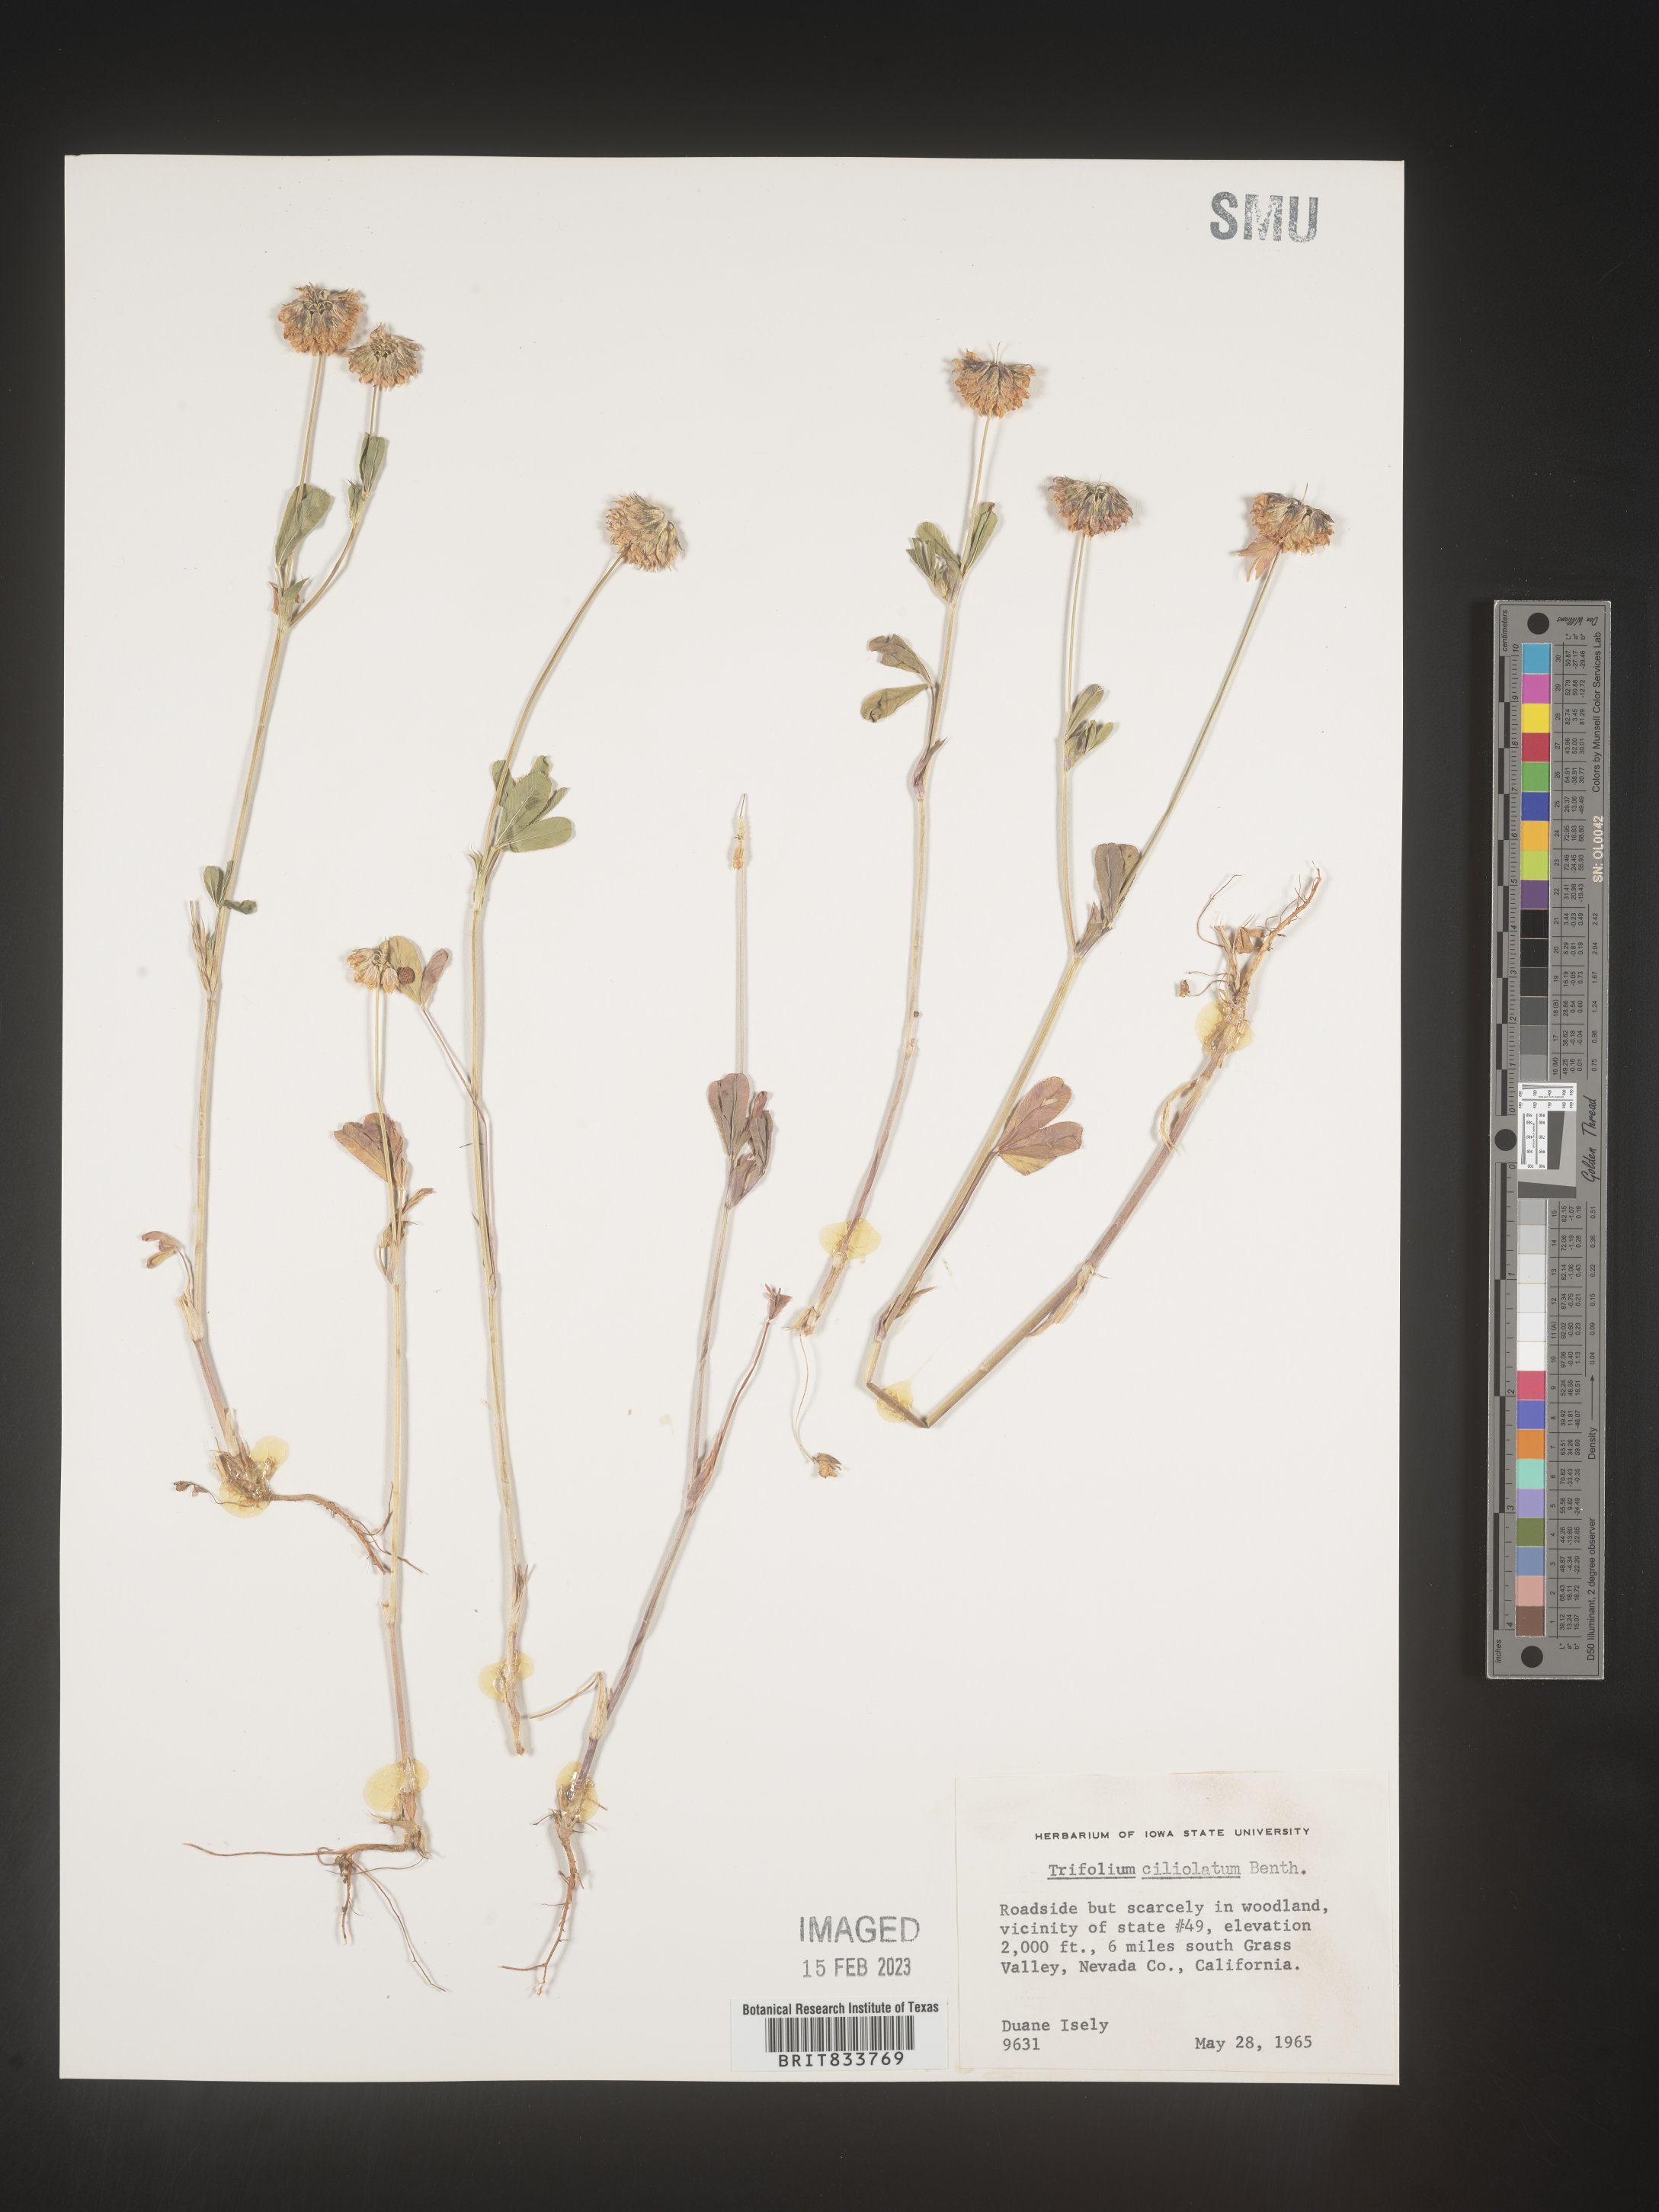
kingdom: Plantae
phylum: Tracheophyta
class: Magnoliopsida
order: Fabales
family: Fabaceae
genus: Trifolium
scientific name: Trifolium
